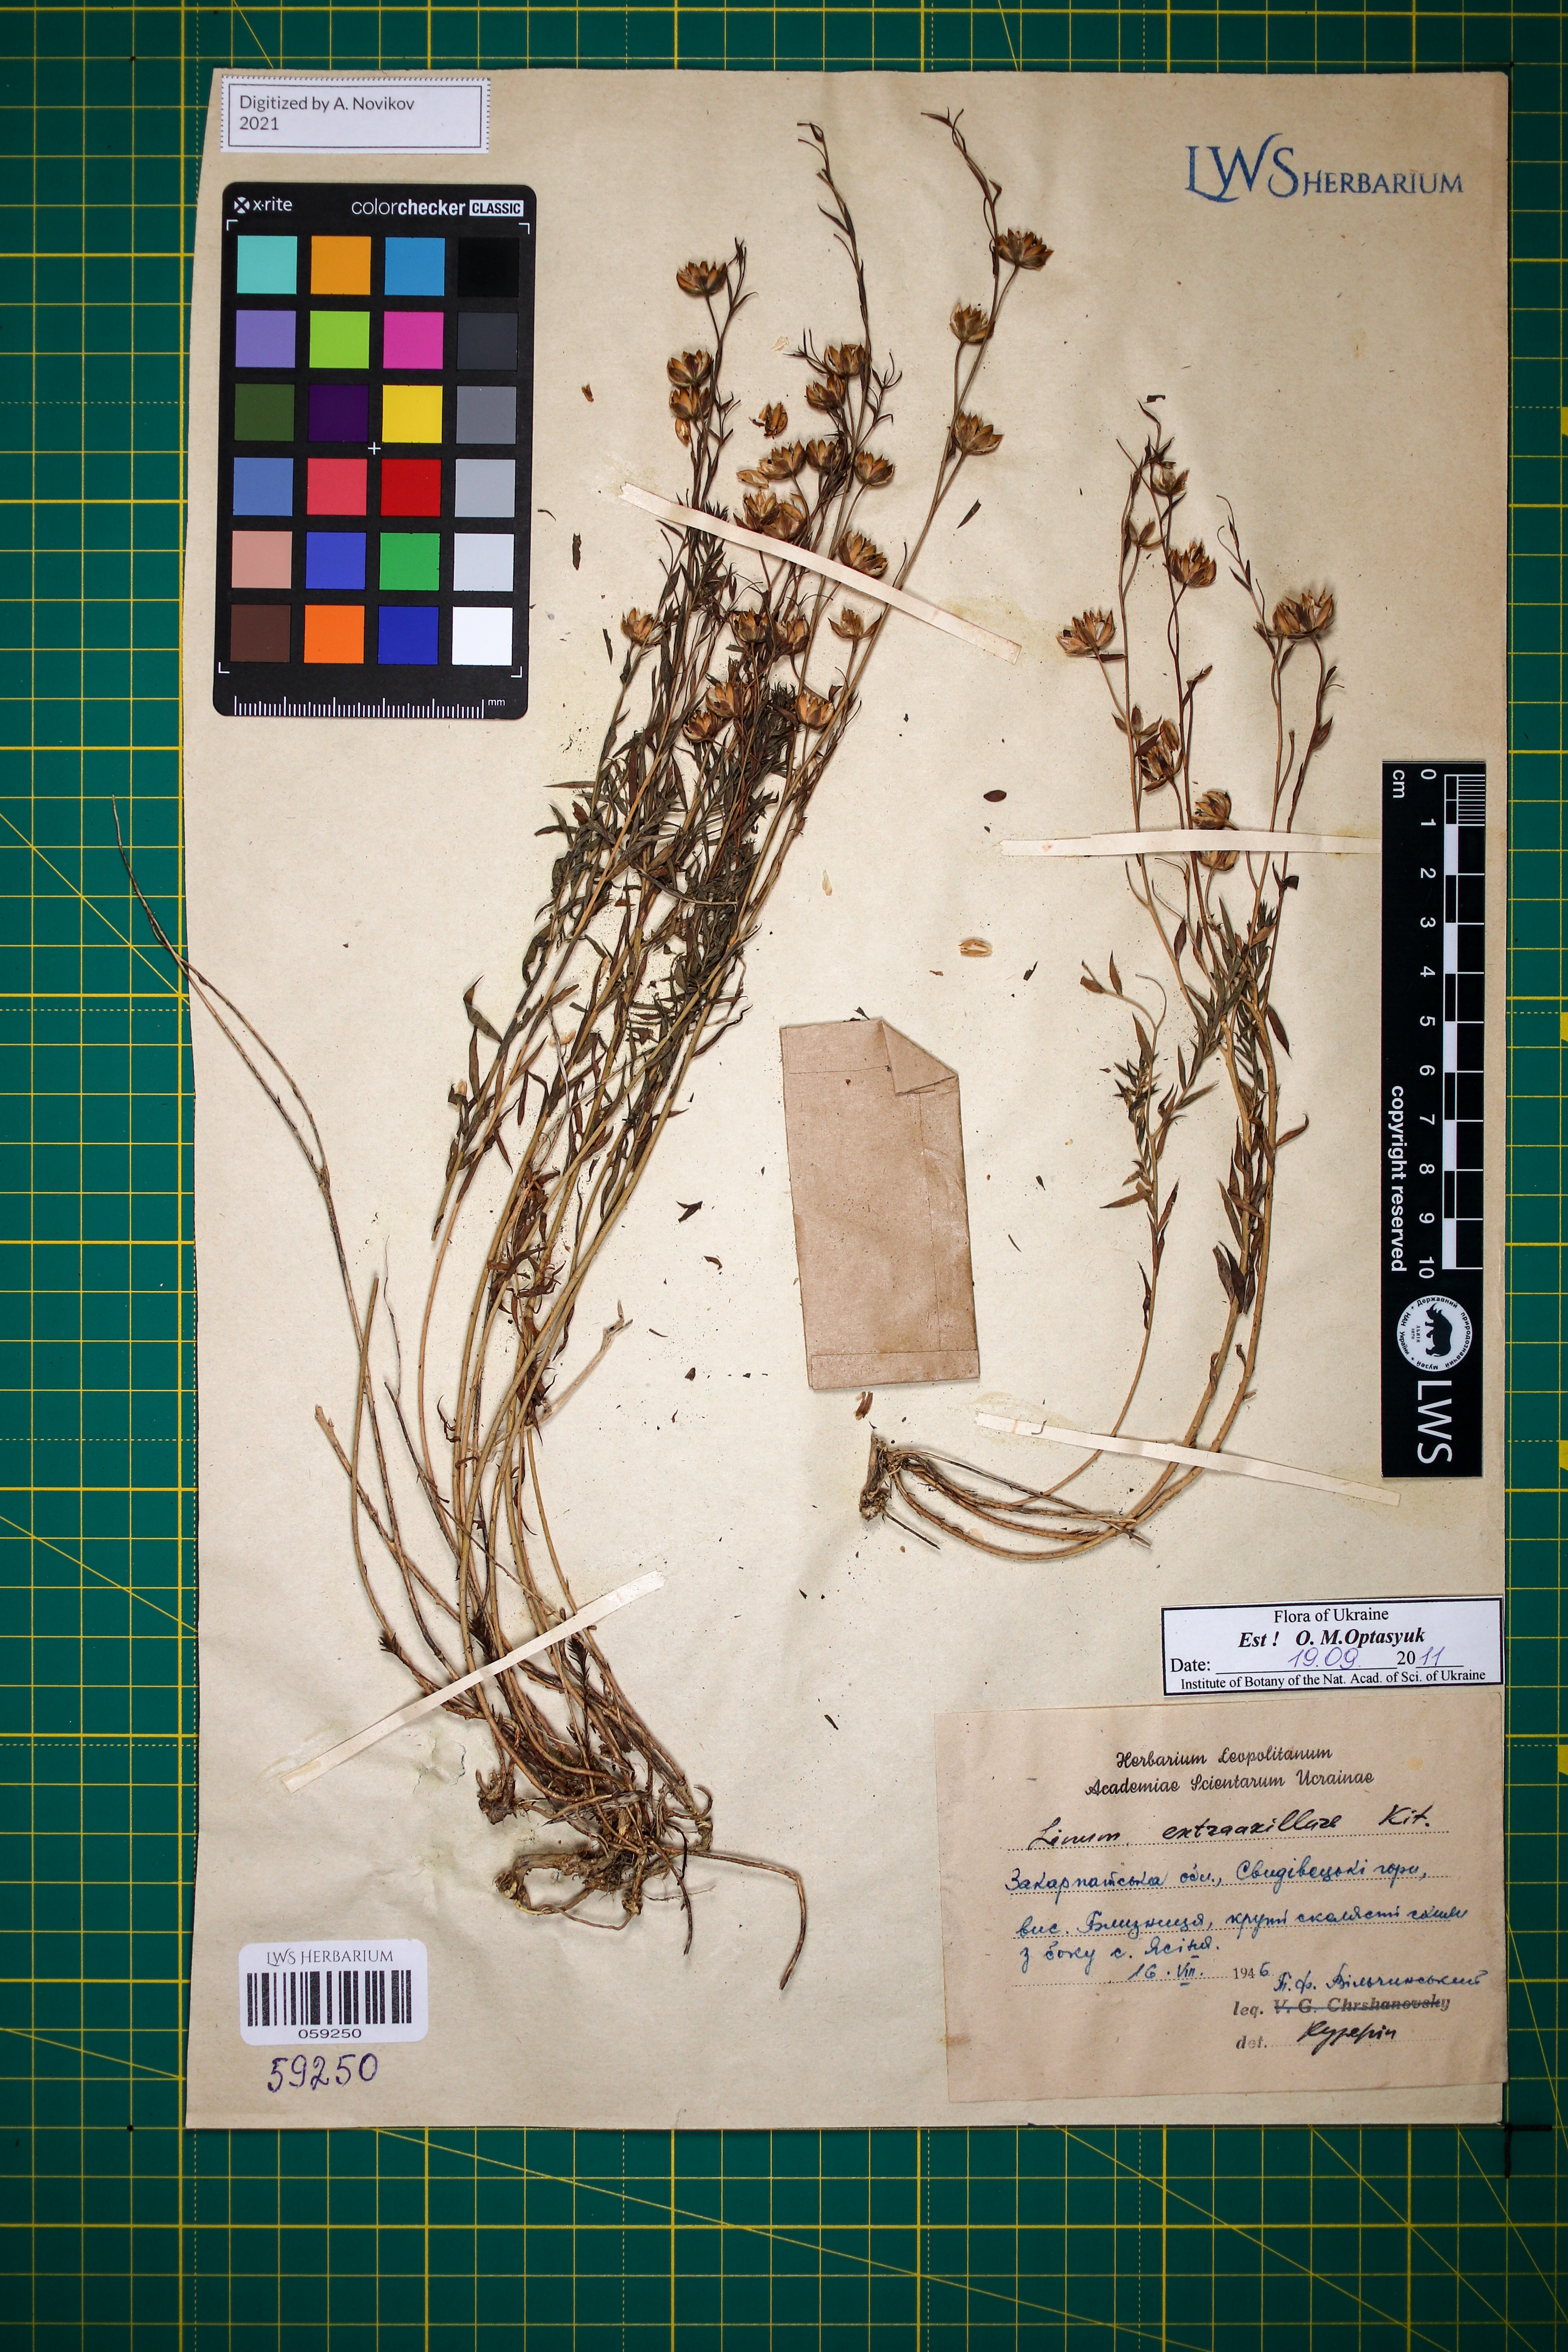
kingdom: Plantae
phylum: Tracheophyta
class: Magnoliopsida
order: Malpighiales
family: Linaceae
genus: Linum
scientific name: Linum perenne
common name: Blue flax
